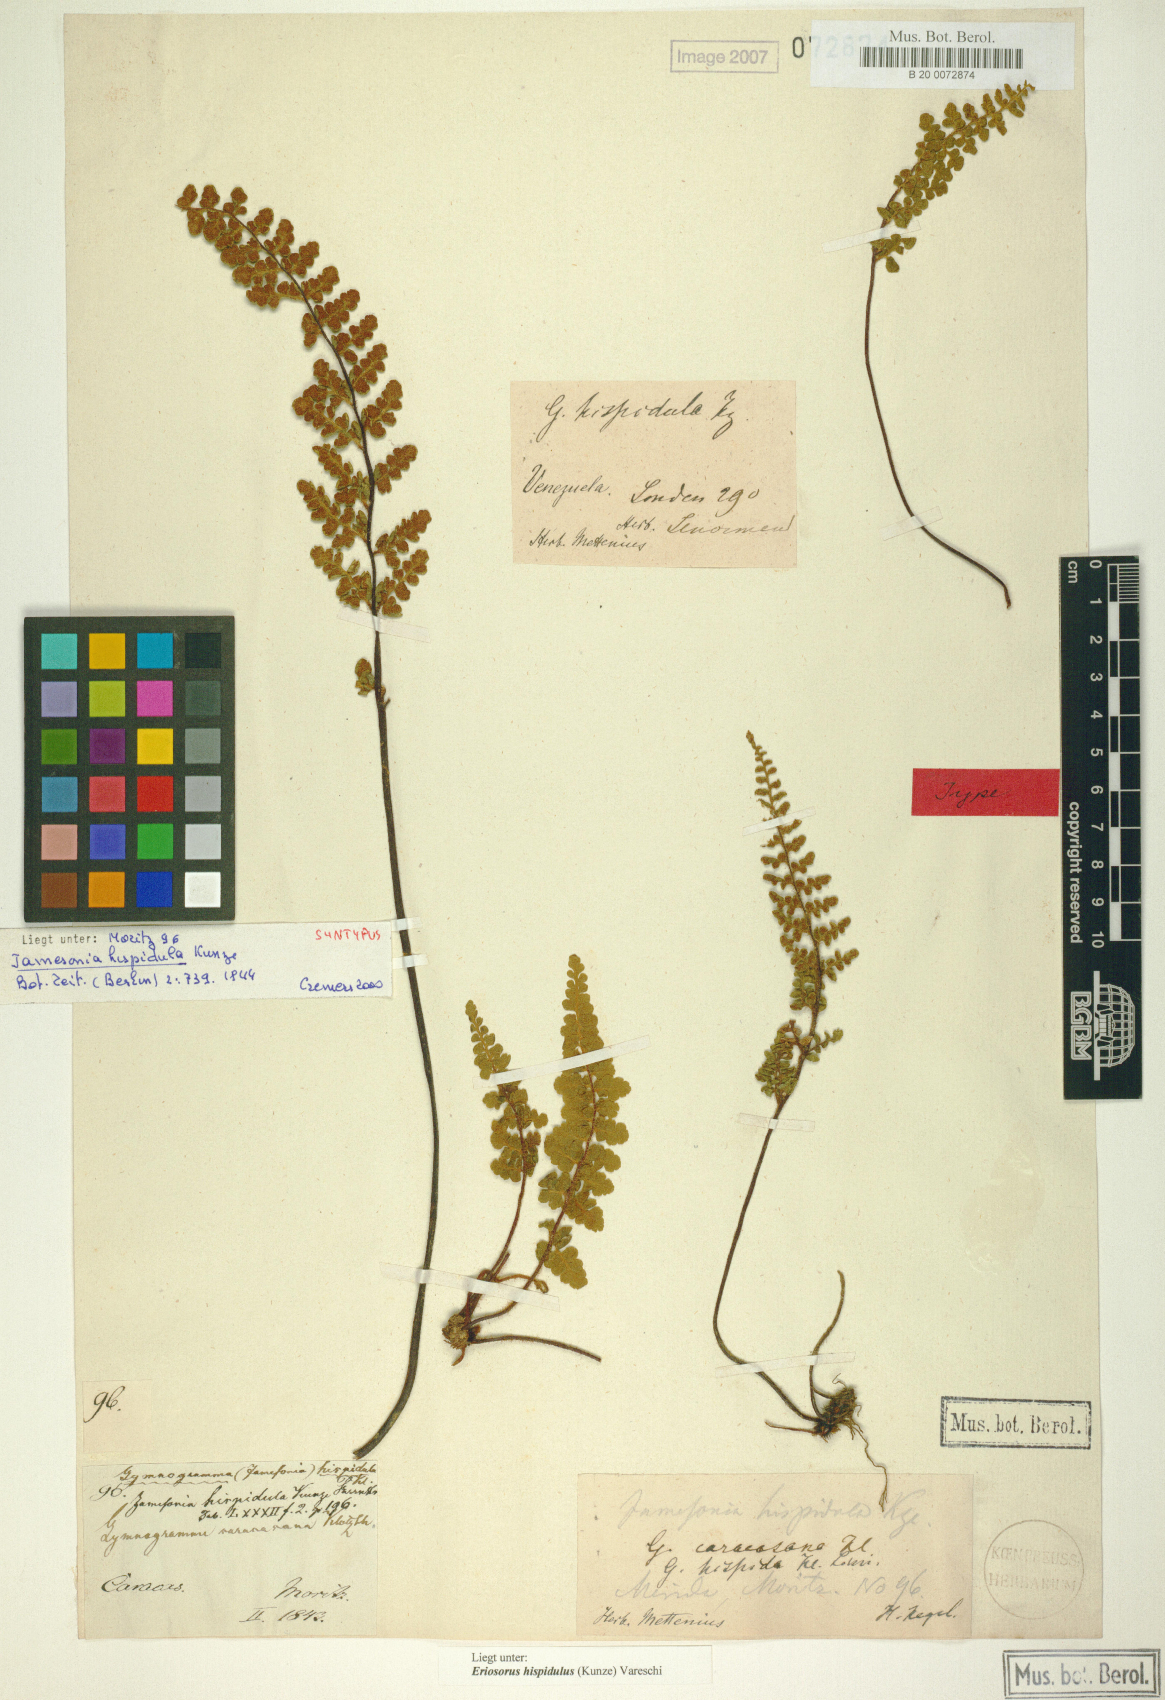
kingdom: Plantae
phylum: Tracheophyta
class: Polypodiopsida
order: Polypodiales
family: Pteridaceae
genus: Jamesonia
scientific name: Jamesonia hispidula
